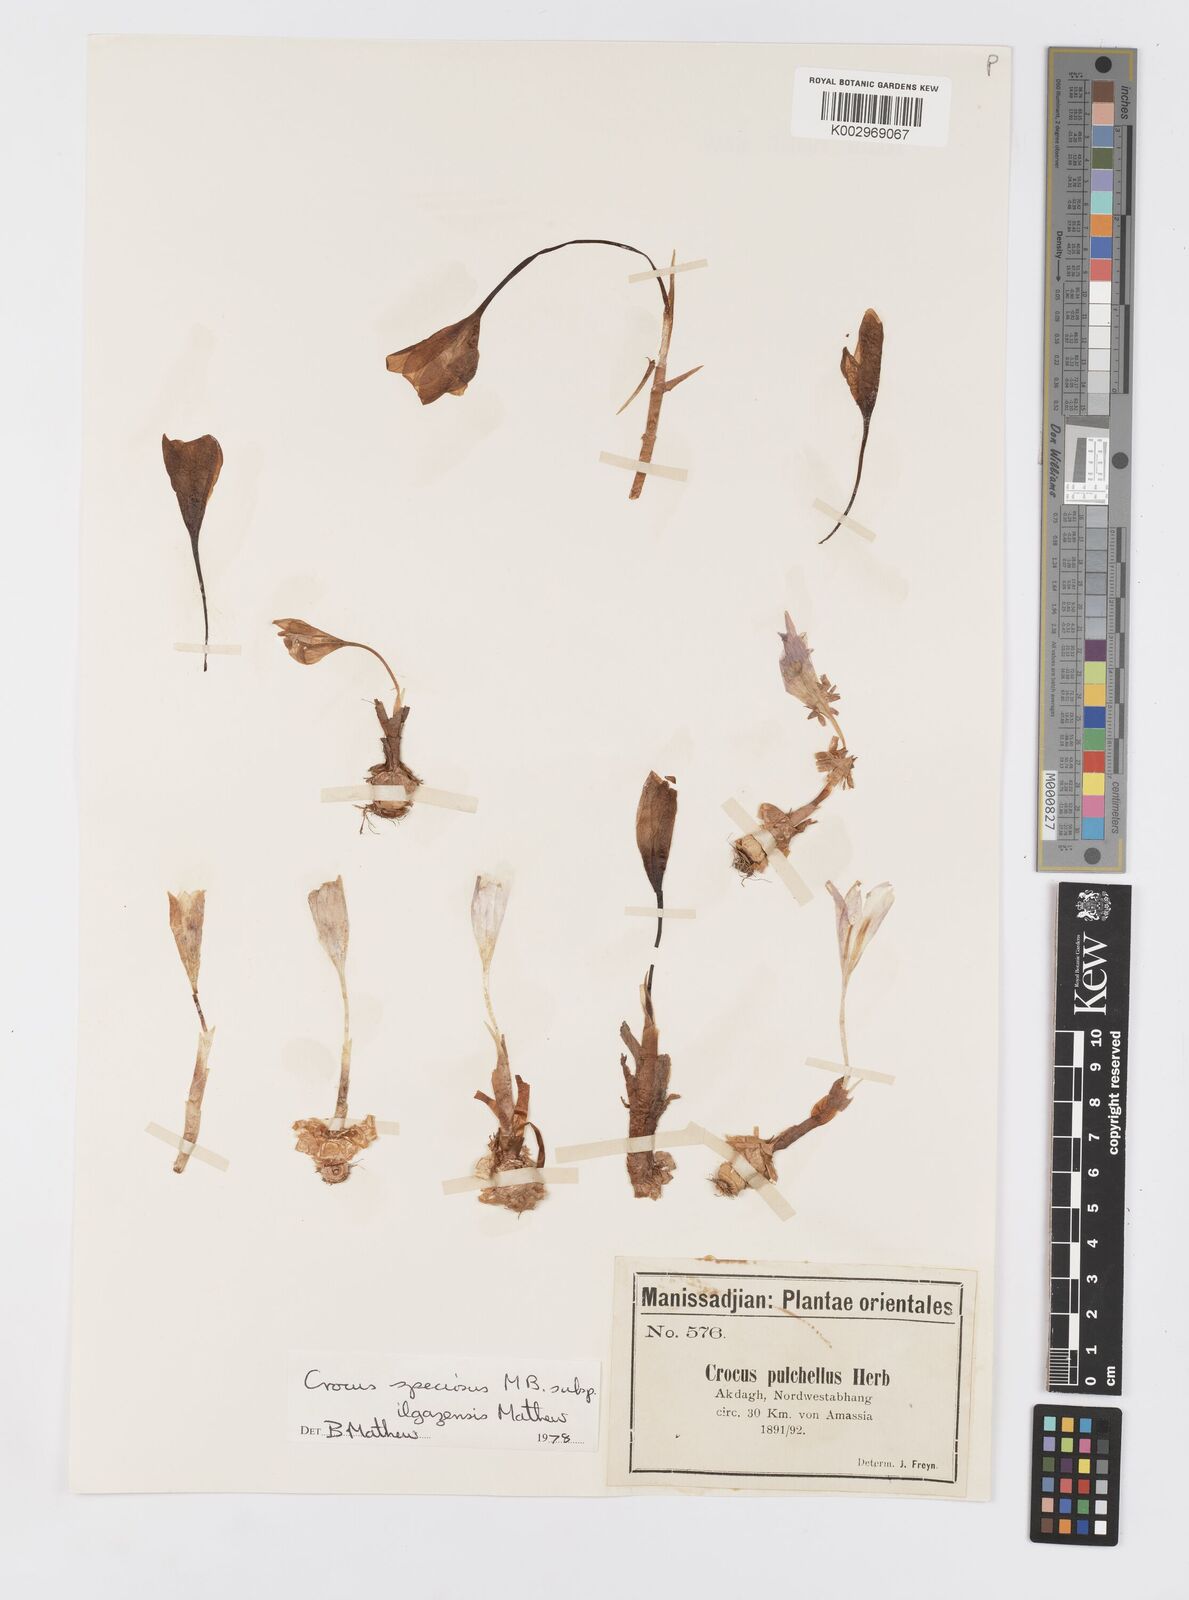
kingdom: Plantae
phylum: Tracheophyta
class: Liliopsida
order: Asparagales
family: Iridaceae
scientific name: Iridaceae
